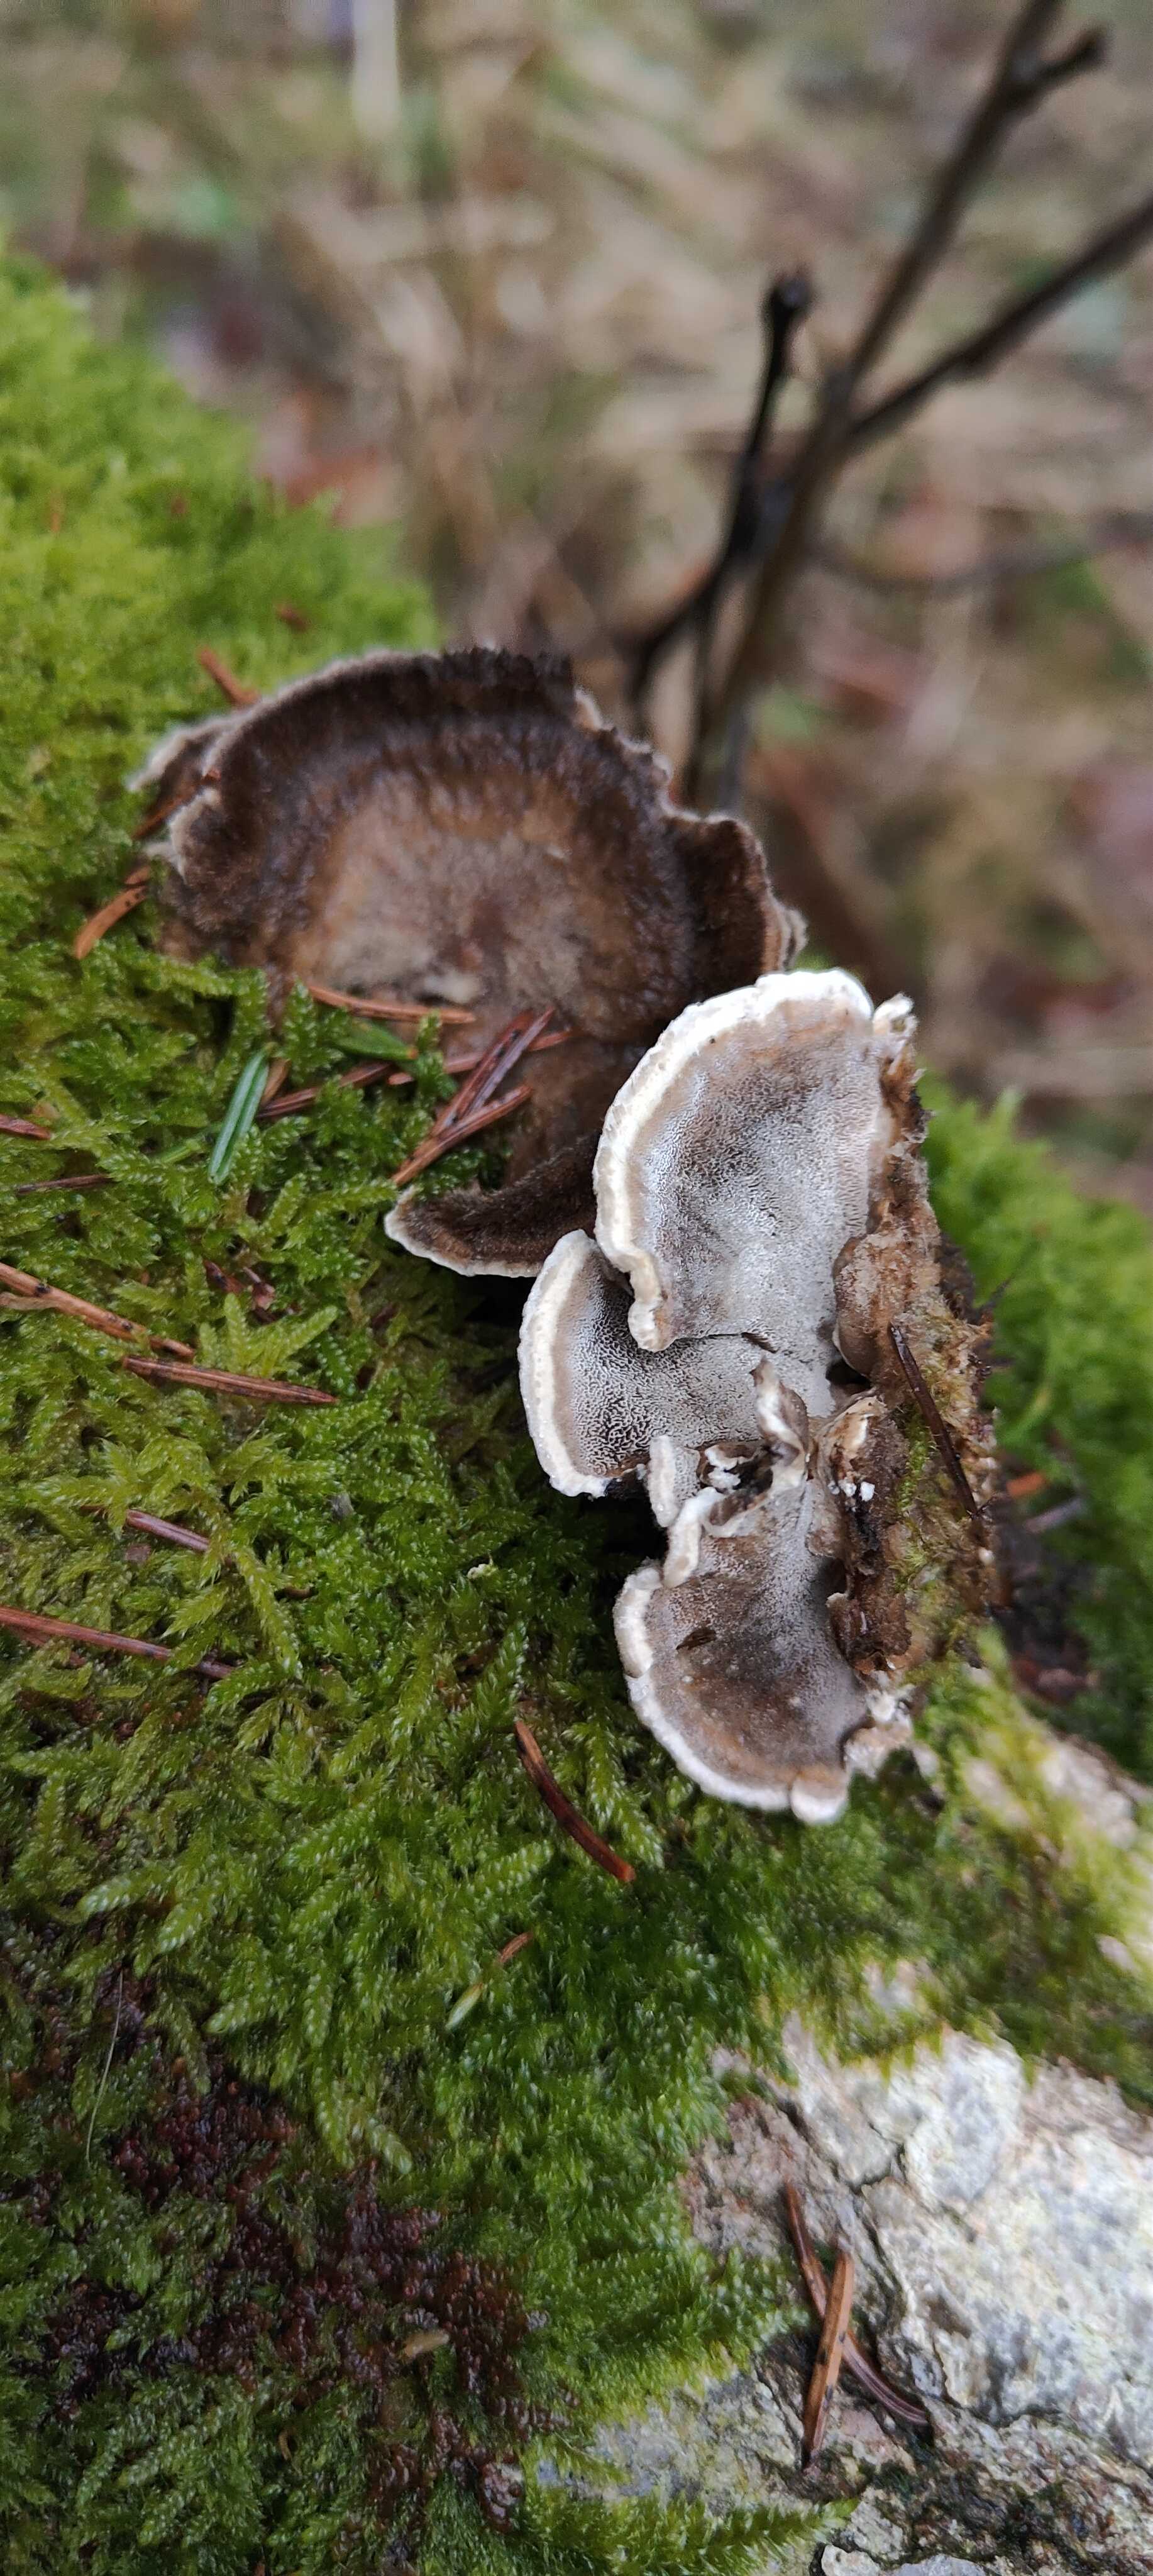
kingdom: Fungi
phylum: Basidiomycota
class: Agaricomycetes
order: Polyporales
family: Phanerochaetaceae
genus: Bjerkandera
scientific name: Bjerkandera adusta
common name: sveden sodporesvamp
